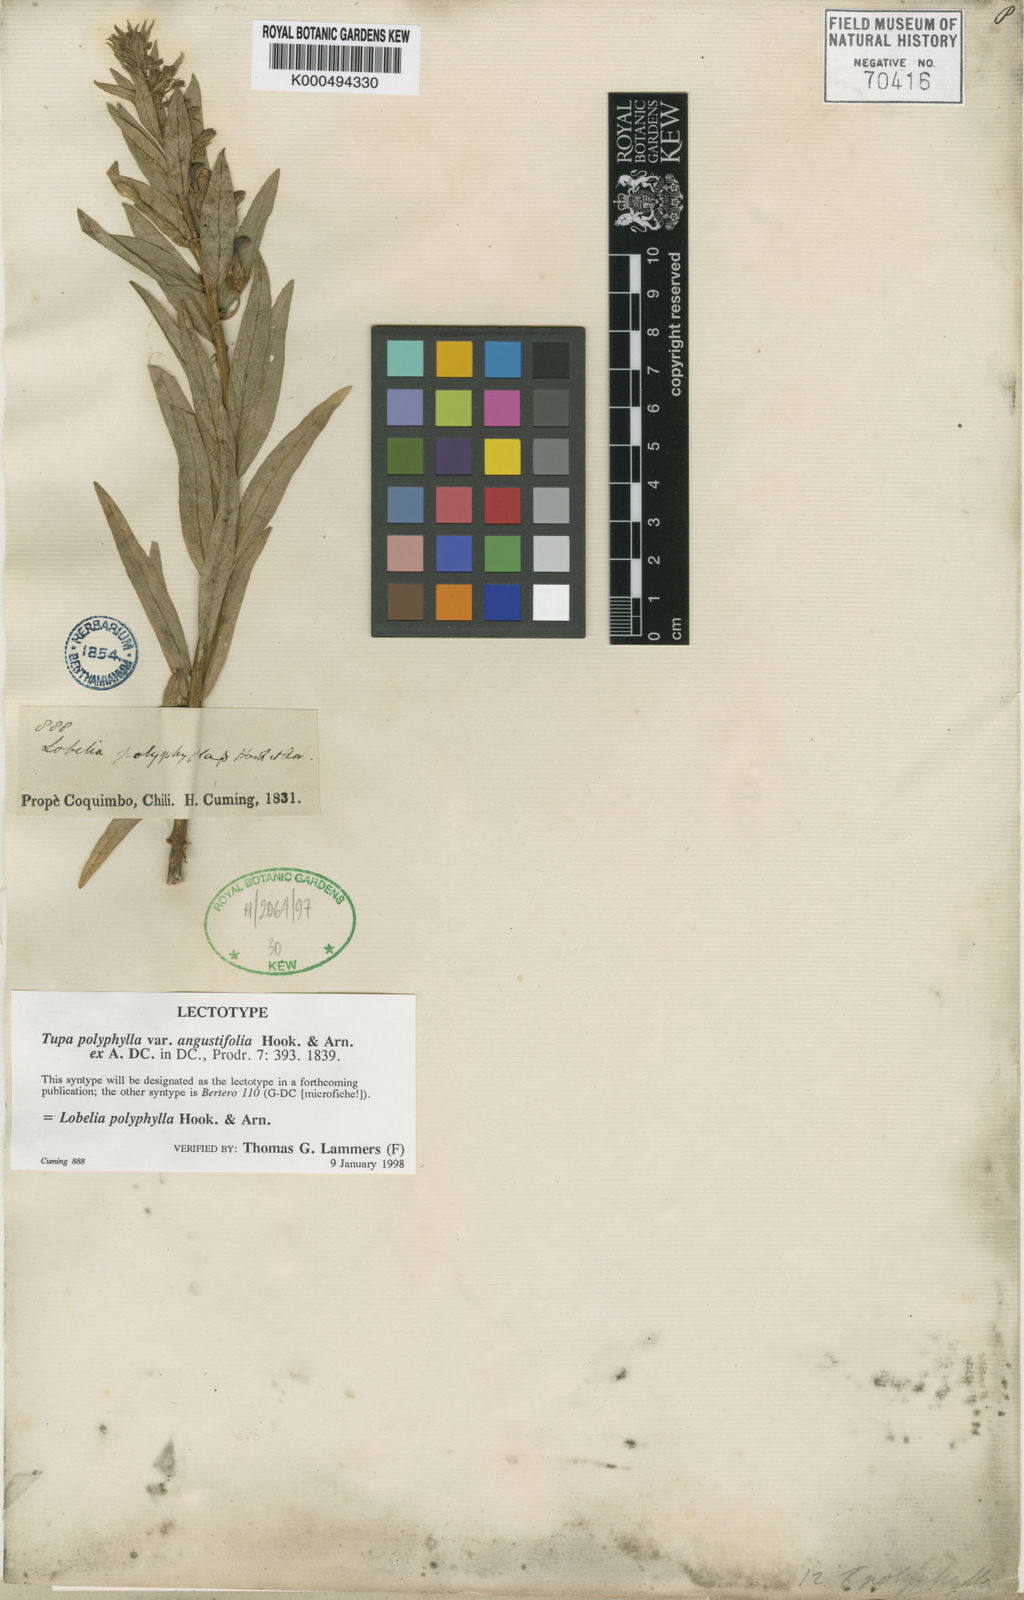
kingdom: Plantae
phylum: Tracheophyta
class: Magnoliopsida
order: Asterales
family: Campanulaceae
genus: Lobelia
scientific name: Lobelia polyphylla
